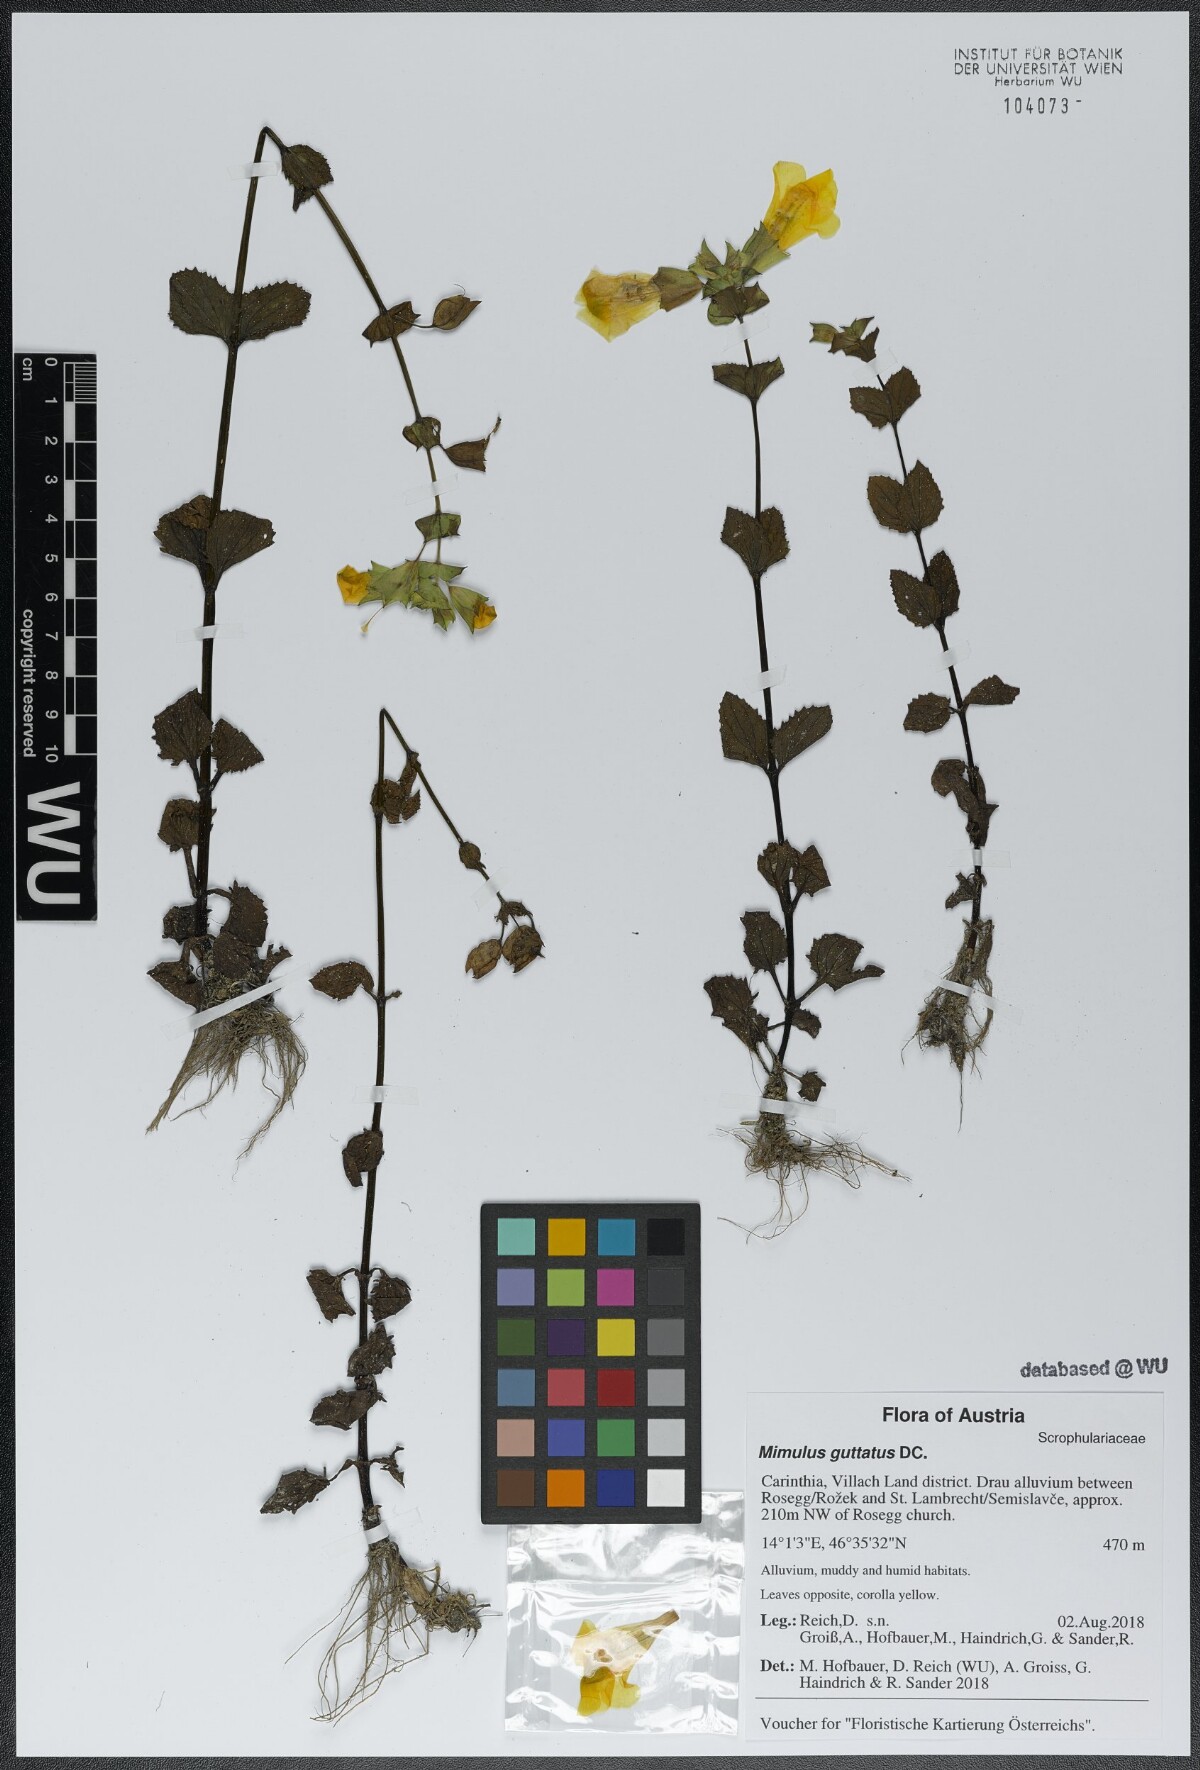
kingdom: Plantae
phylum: Tracheophyta
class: Magnoliopsida
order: Lamiales
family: Phrymaceae
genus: Erythranthe
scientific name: Erythranthe guttata
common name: Monkeyflower
